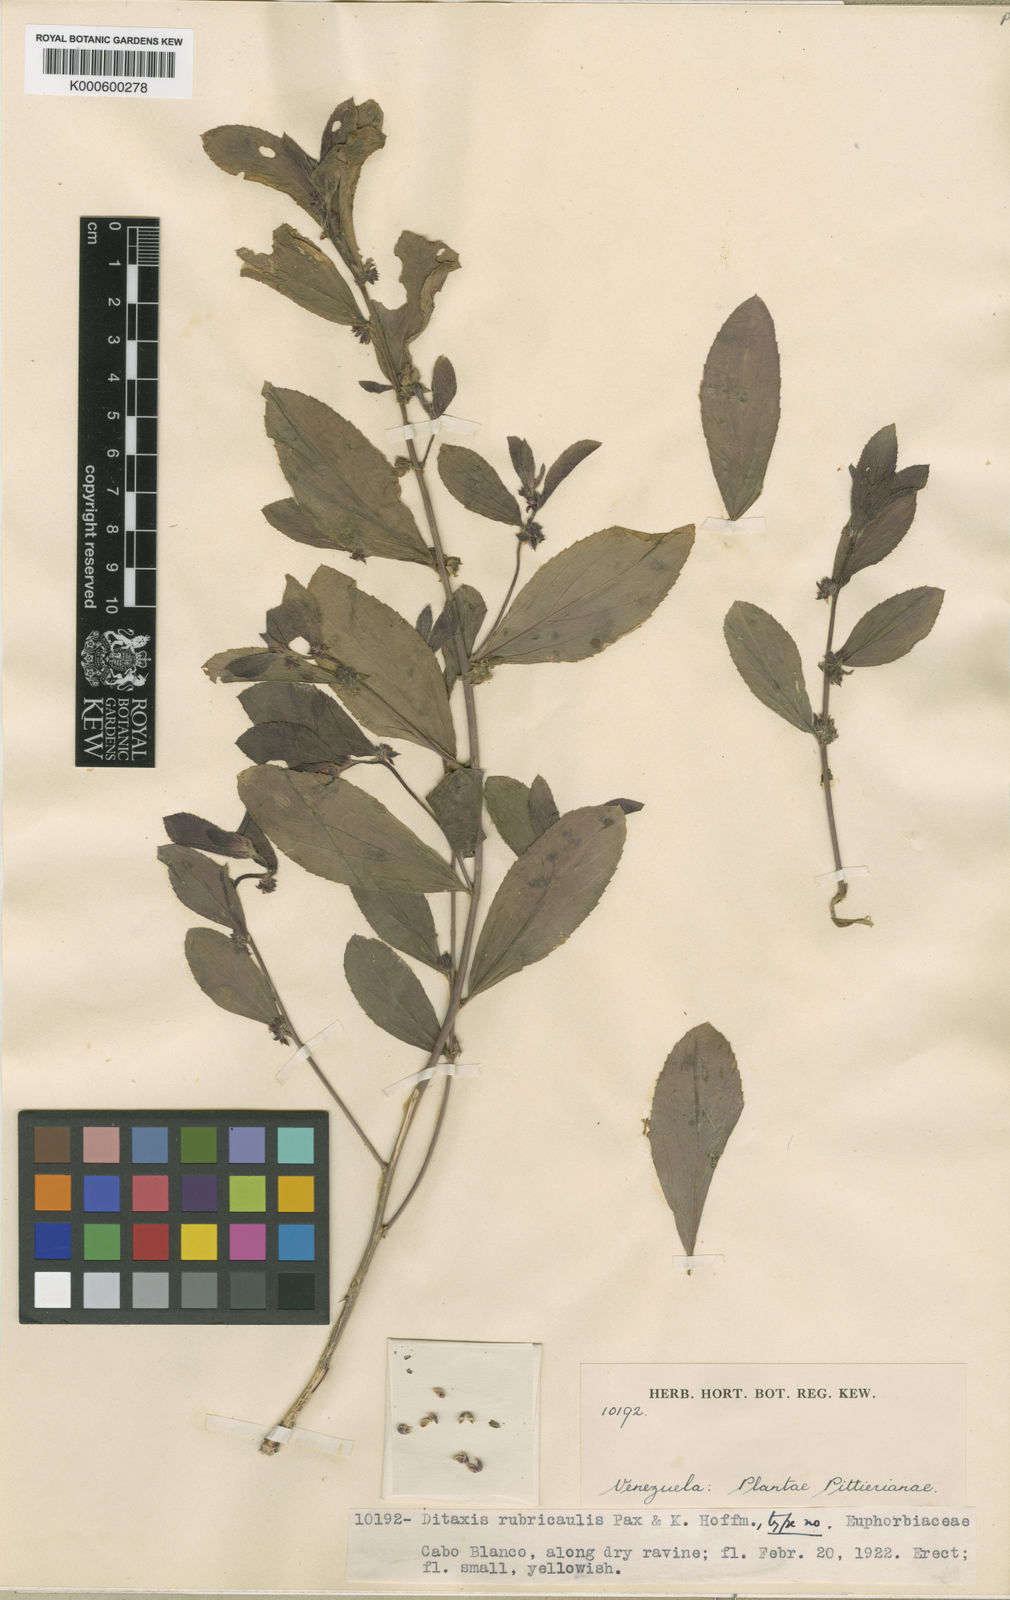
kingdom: Plantae
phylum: Tracheophyta
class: Magnoliopsida
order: Malpighiales
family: Euphorbiaceae
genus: Ditaxis
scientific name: Ditaxis argothamnoides
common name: Blodgett's silverbush
